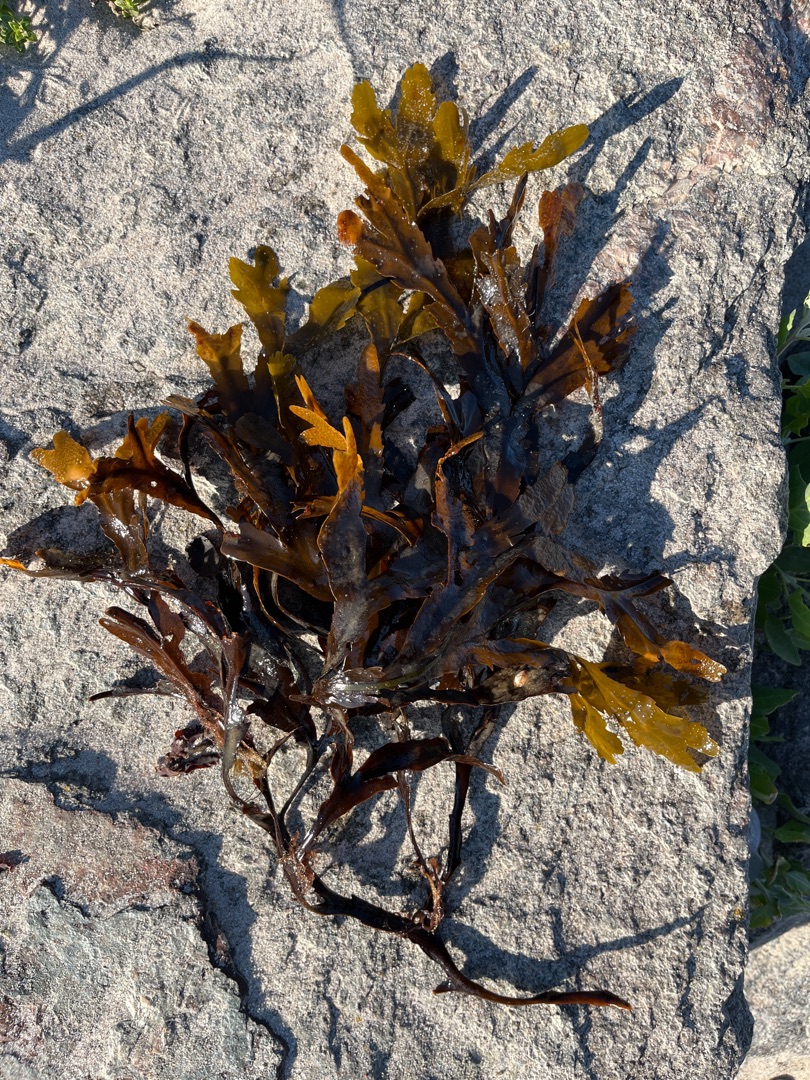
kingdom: Chromista
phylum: Ochrophyta
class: Phaeophyceae
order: Fucales
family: Fucaceae
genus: Fucus
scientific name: Fucus serratus
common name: Savtang
